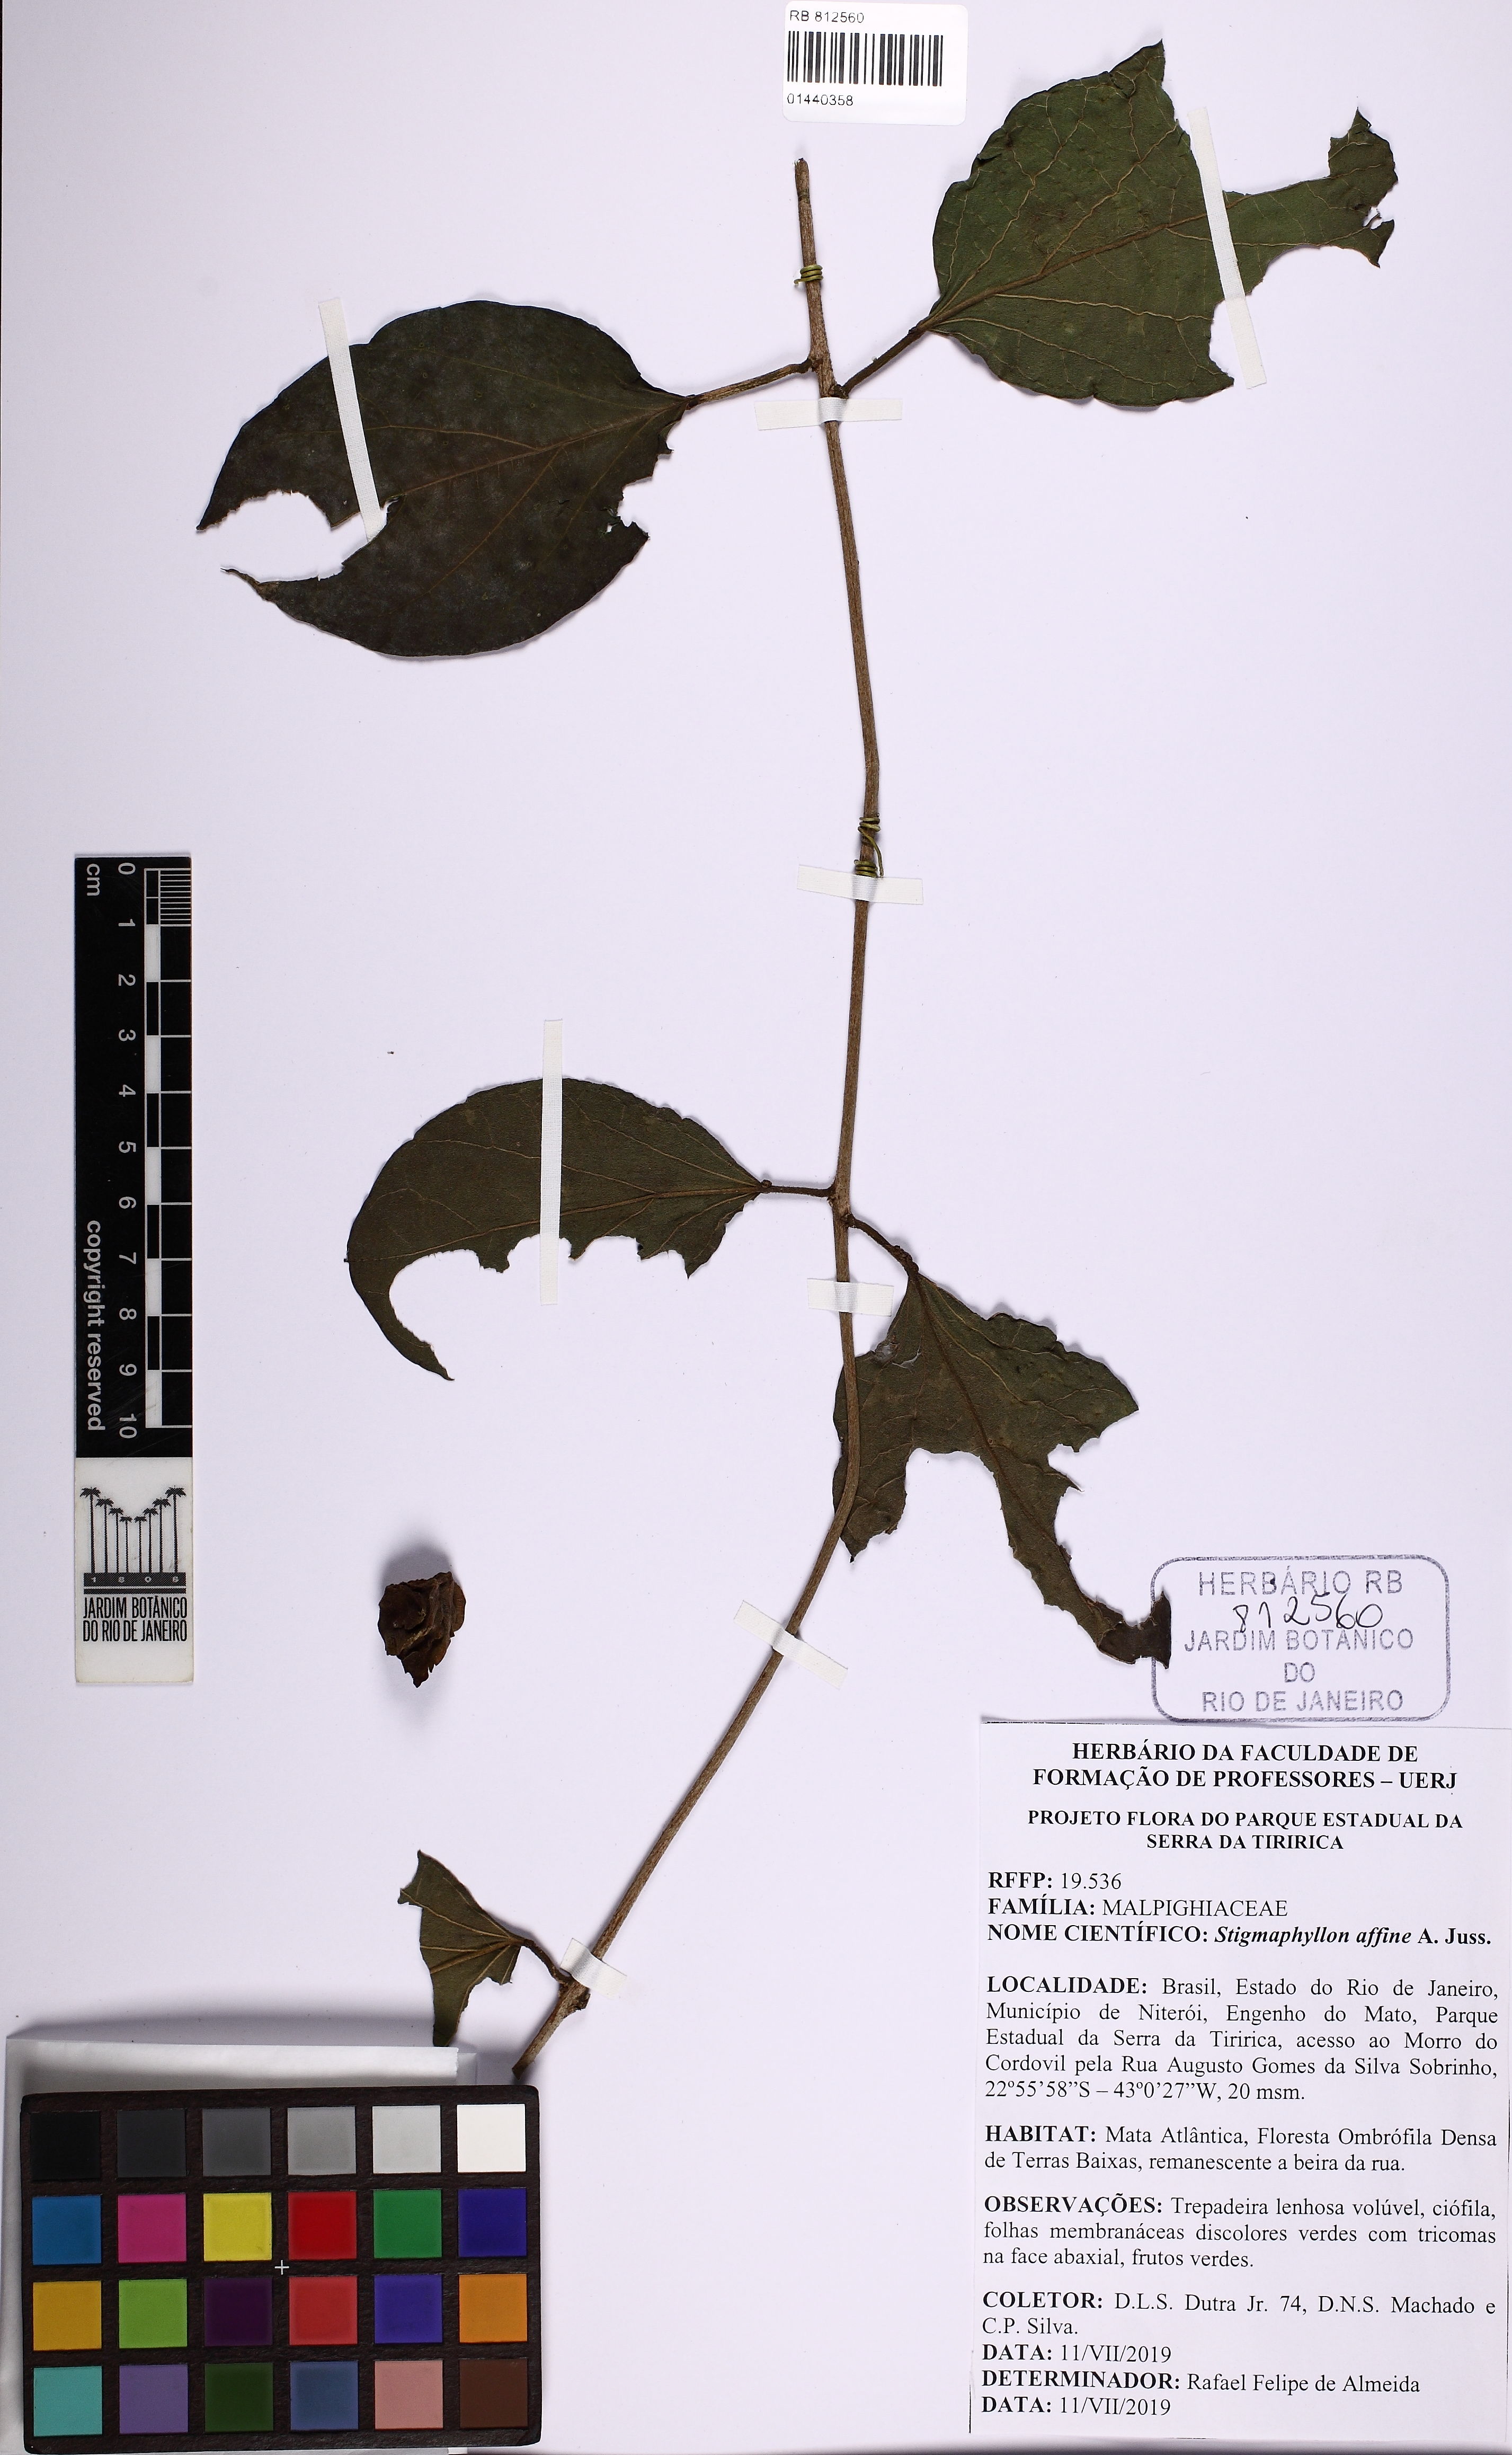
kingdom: Plantae
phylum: Tracheophyta
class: Magnoliopsida
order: Malpighiales
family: Malpighiaceae
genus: Stigmaphyllon
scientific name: Stigmaphyllon affine
